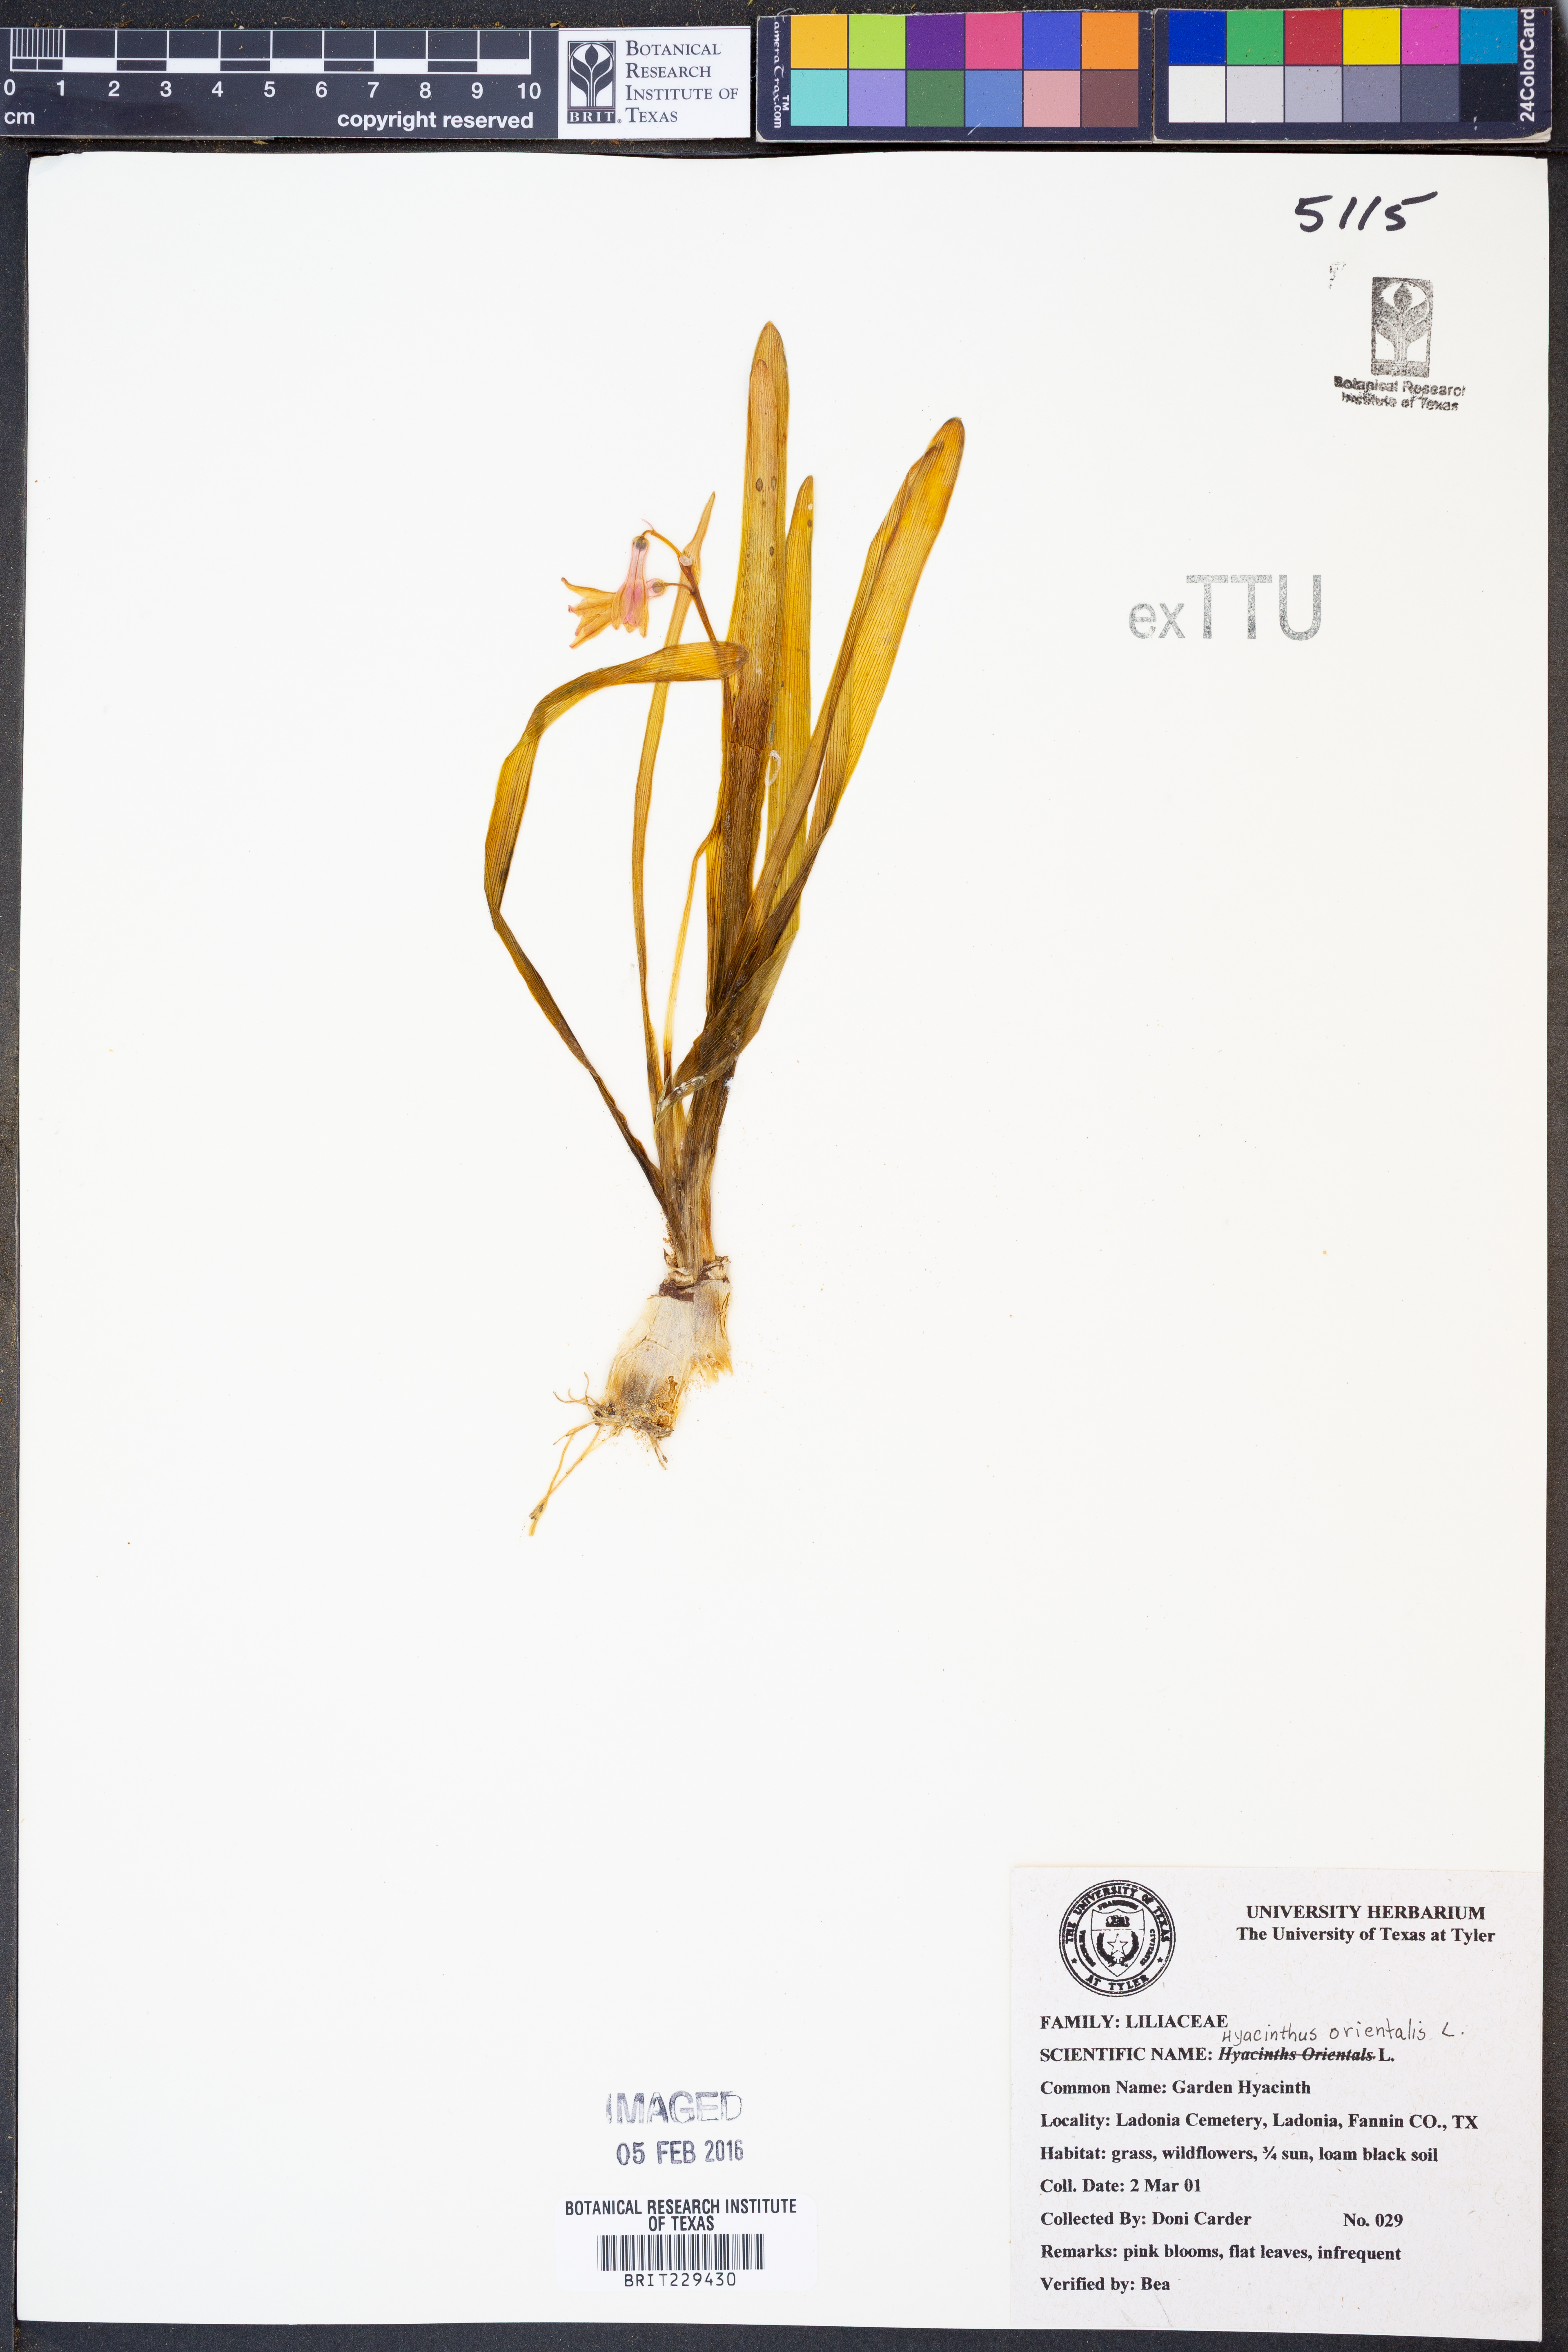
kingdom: Plantae
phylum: Tracheophyta
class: Liliopsida
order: Asparagales
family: Asparagaceae
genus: Hyacinthus
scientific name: Hyacinthus orientalis
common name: Hyacinth
